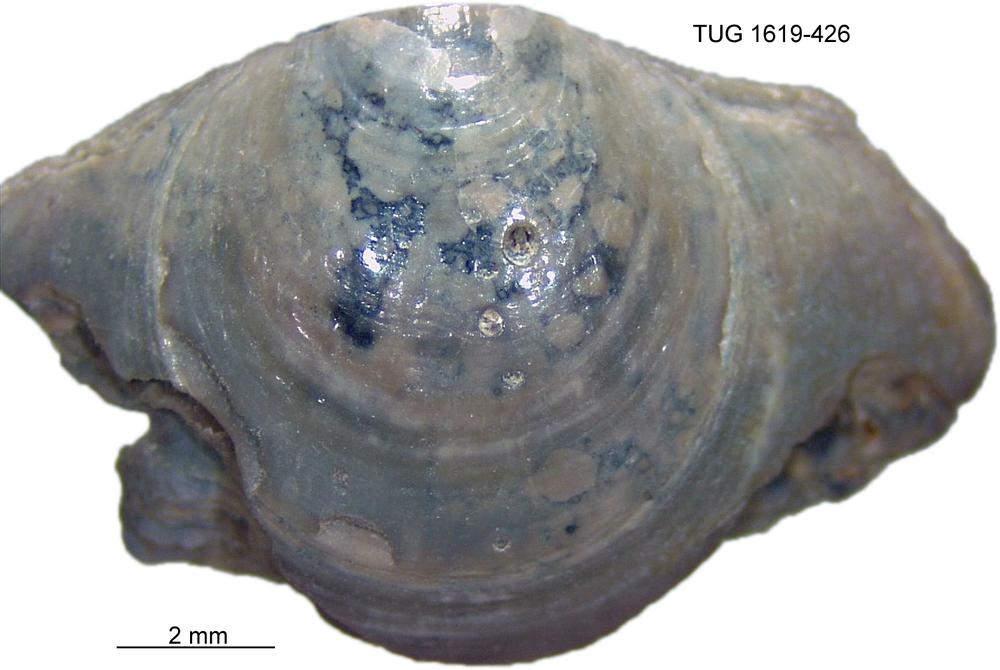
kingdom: Animalia
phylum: Porifera
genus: Ungula
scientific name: Ungula
